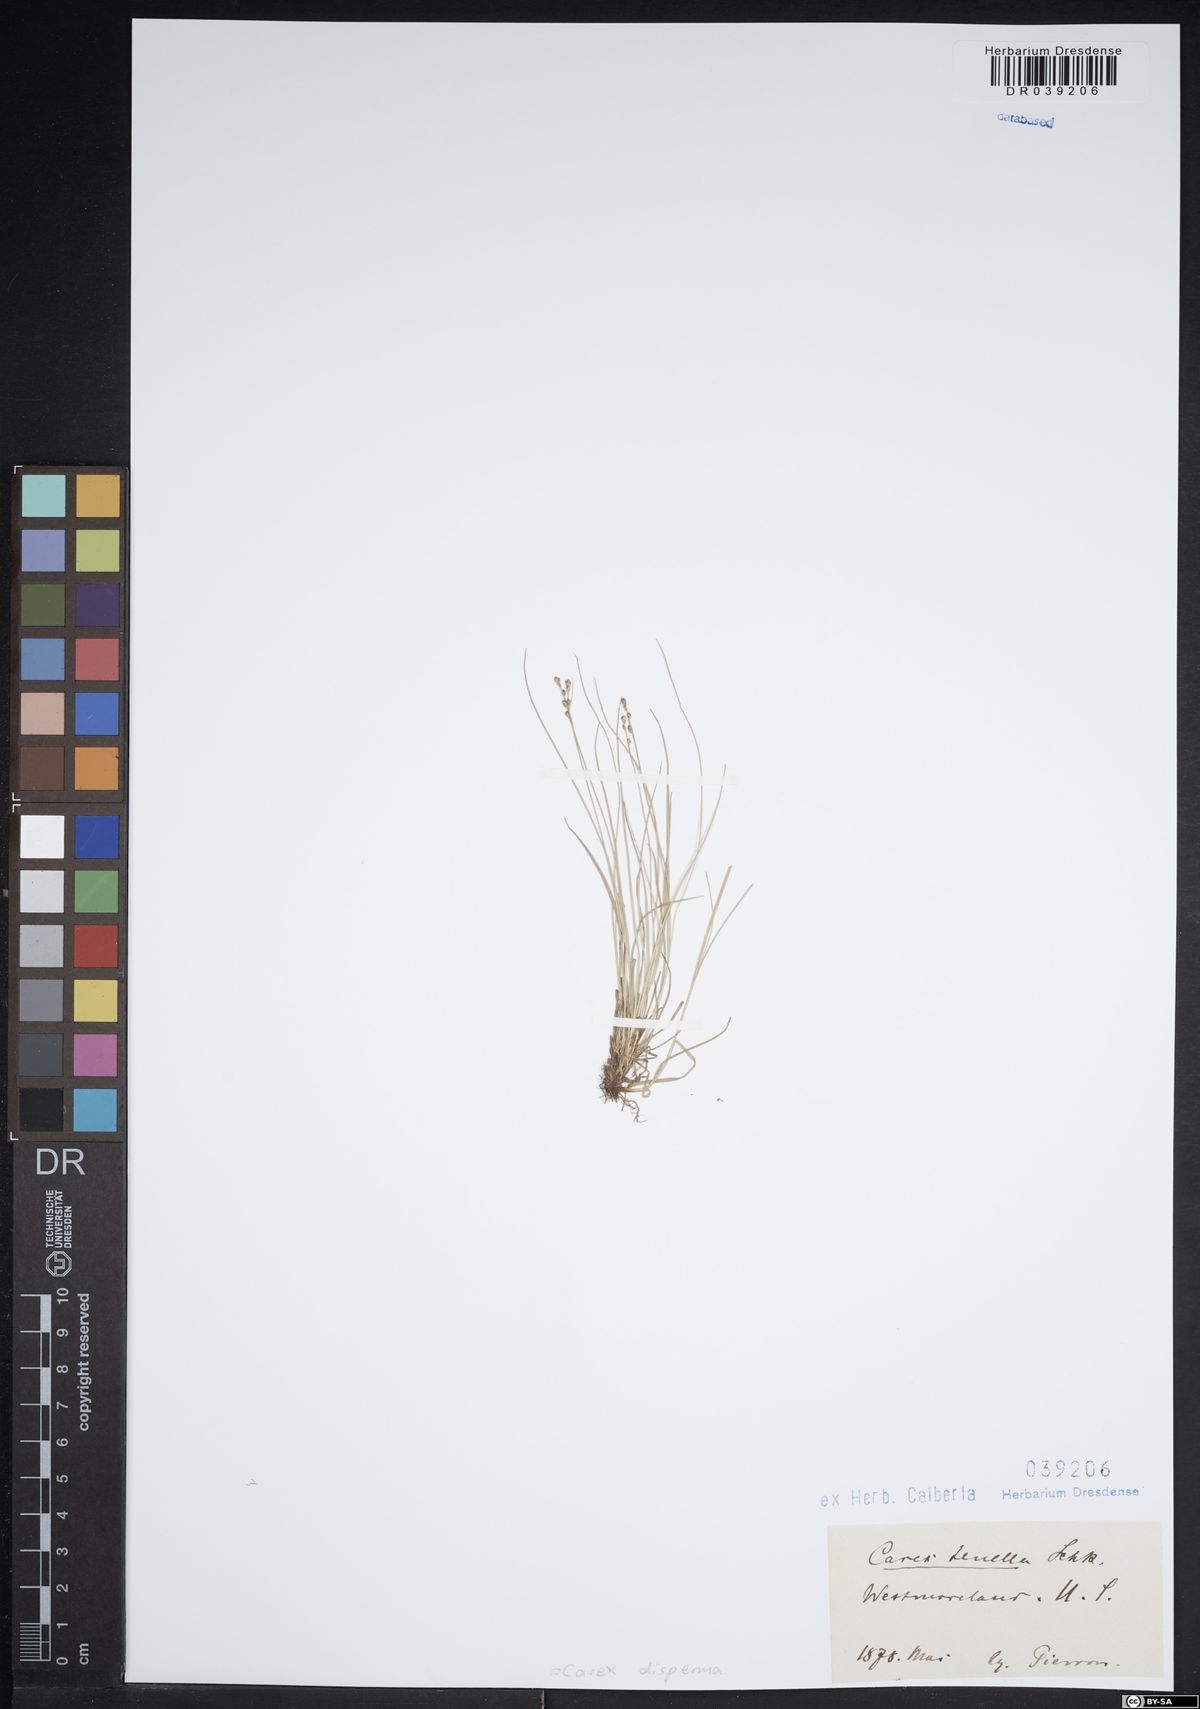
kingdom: Plantae
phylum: Tracheophyta
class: Liliopsida
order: Poales
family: Cyperaceae
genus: Carex
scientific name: Carex disperma
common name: Short-leaved sedge
